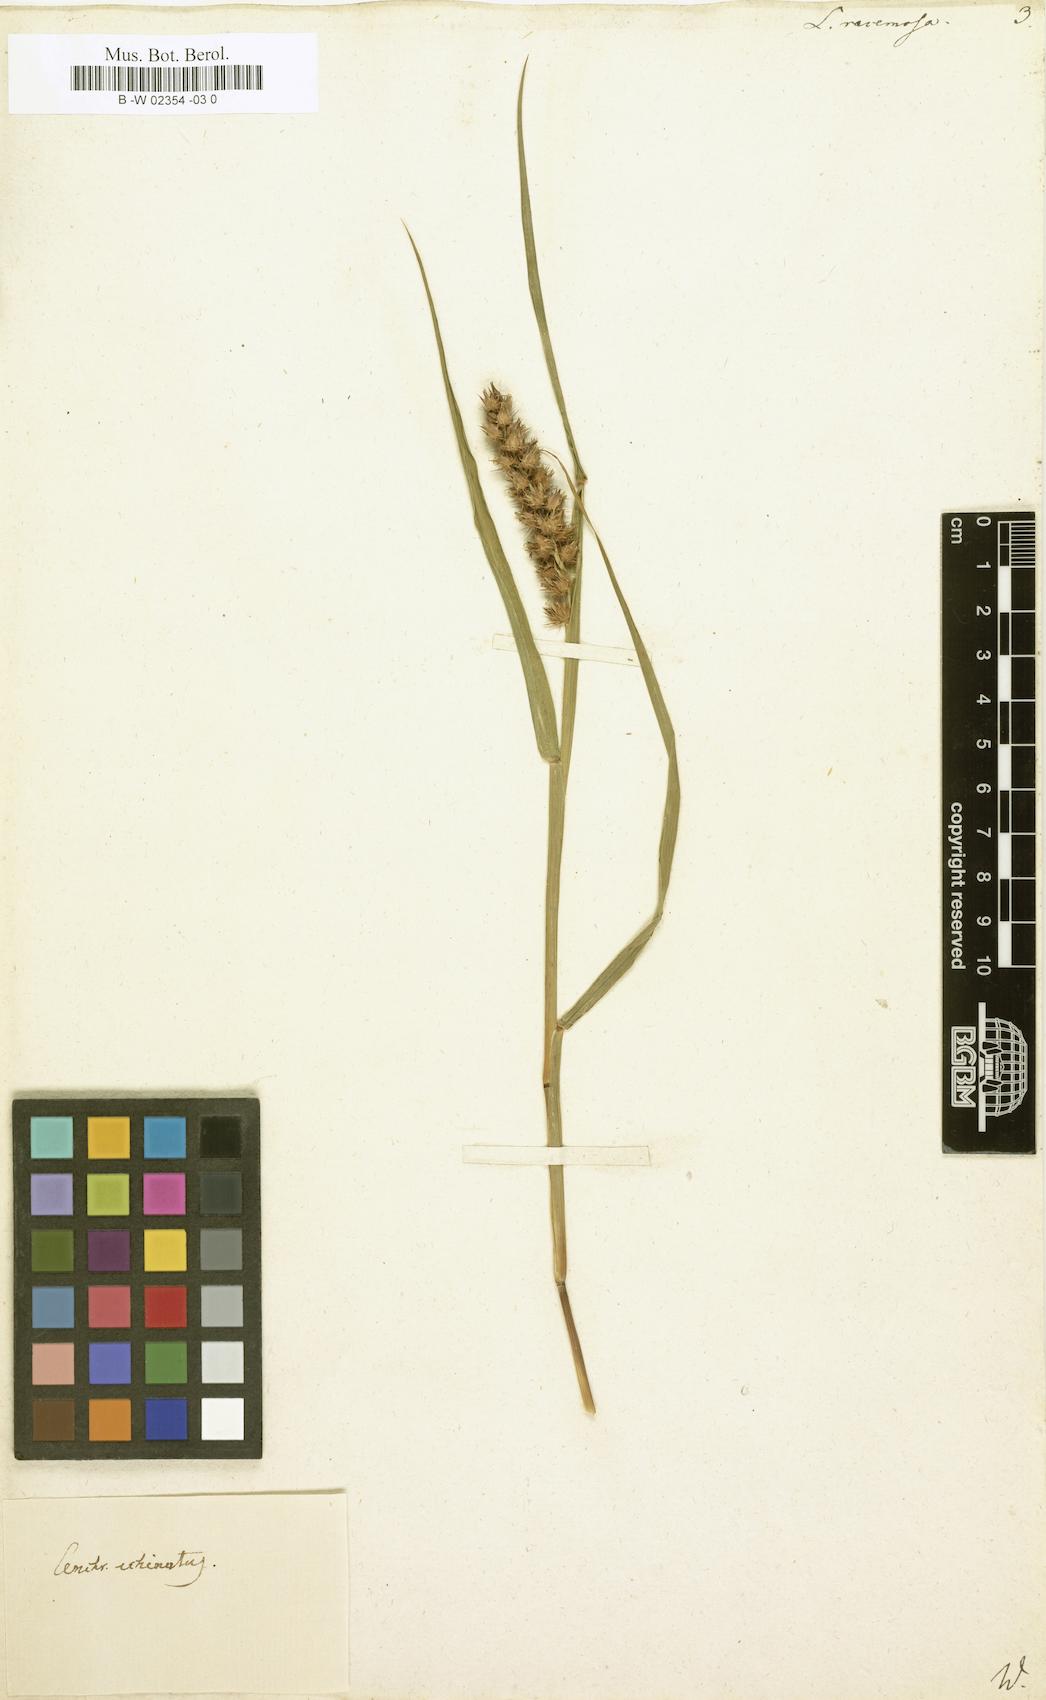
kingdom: Plantae
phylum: Tracheophyta
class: Liliopsida
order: Poales
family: Poaceae
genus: Tragus
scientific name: Tragus racemosus
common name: European bur-grass
